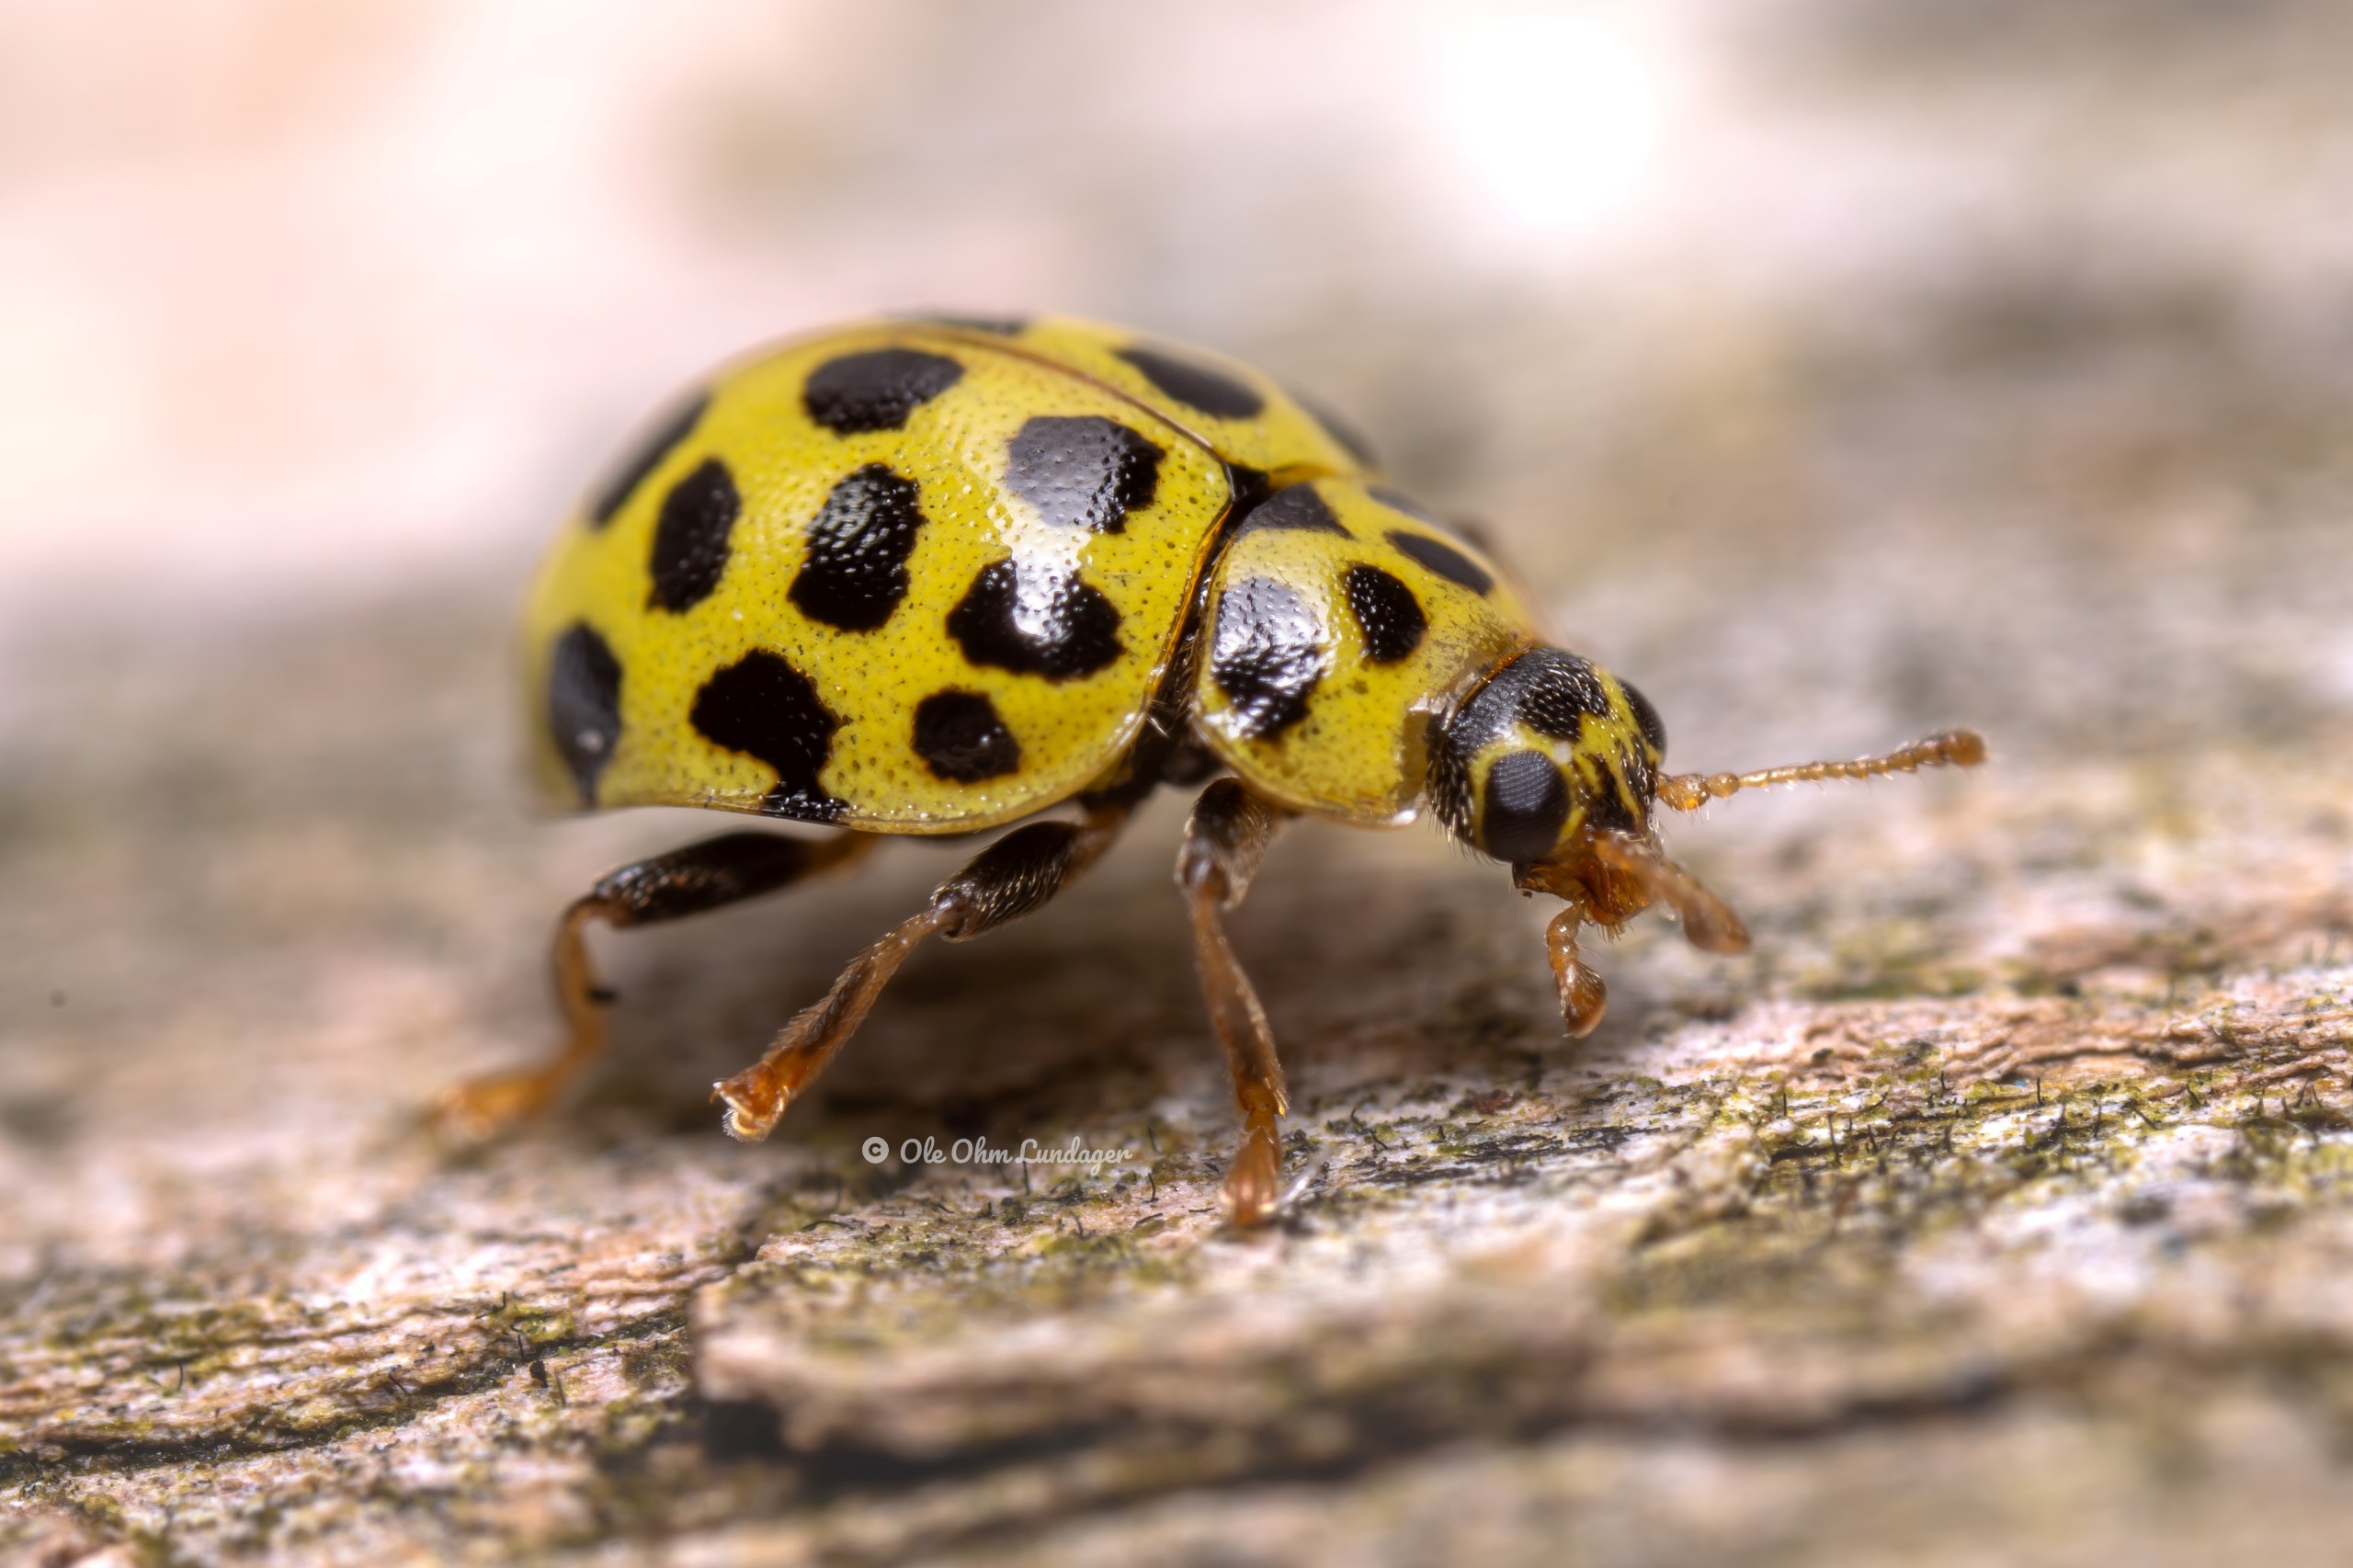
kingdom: Animalia
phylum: Arthropoda
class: Insecta
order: Coleoptera
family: Coccinellidae
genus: Psyllobora
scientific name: Psyllobora vigintiduopunctata
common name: Toogtyveplettet mariehøne
